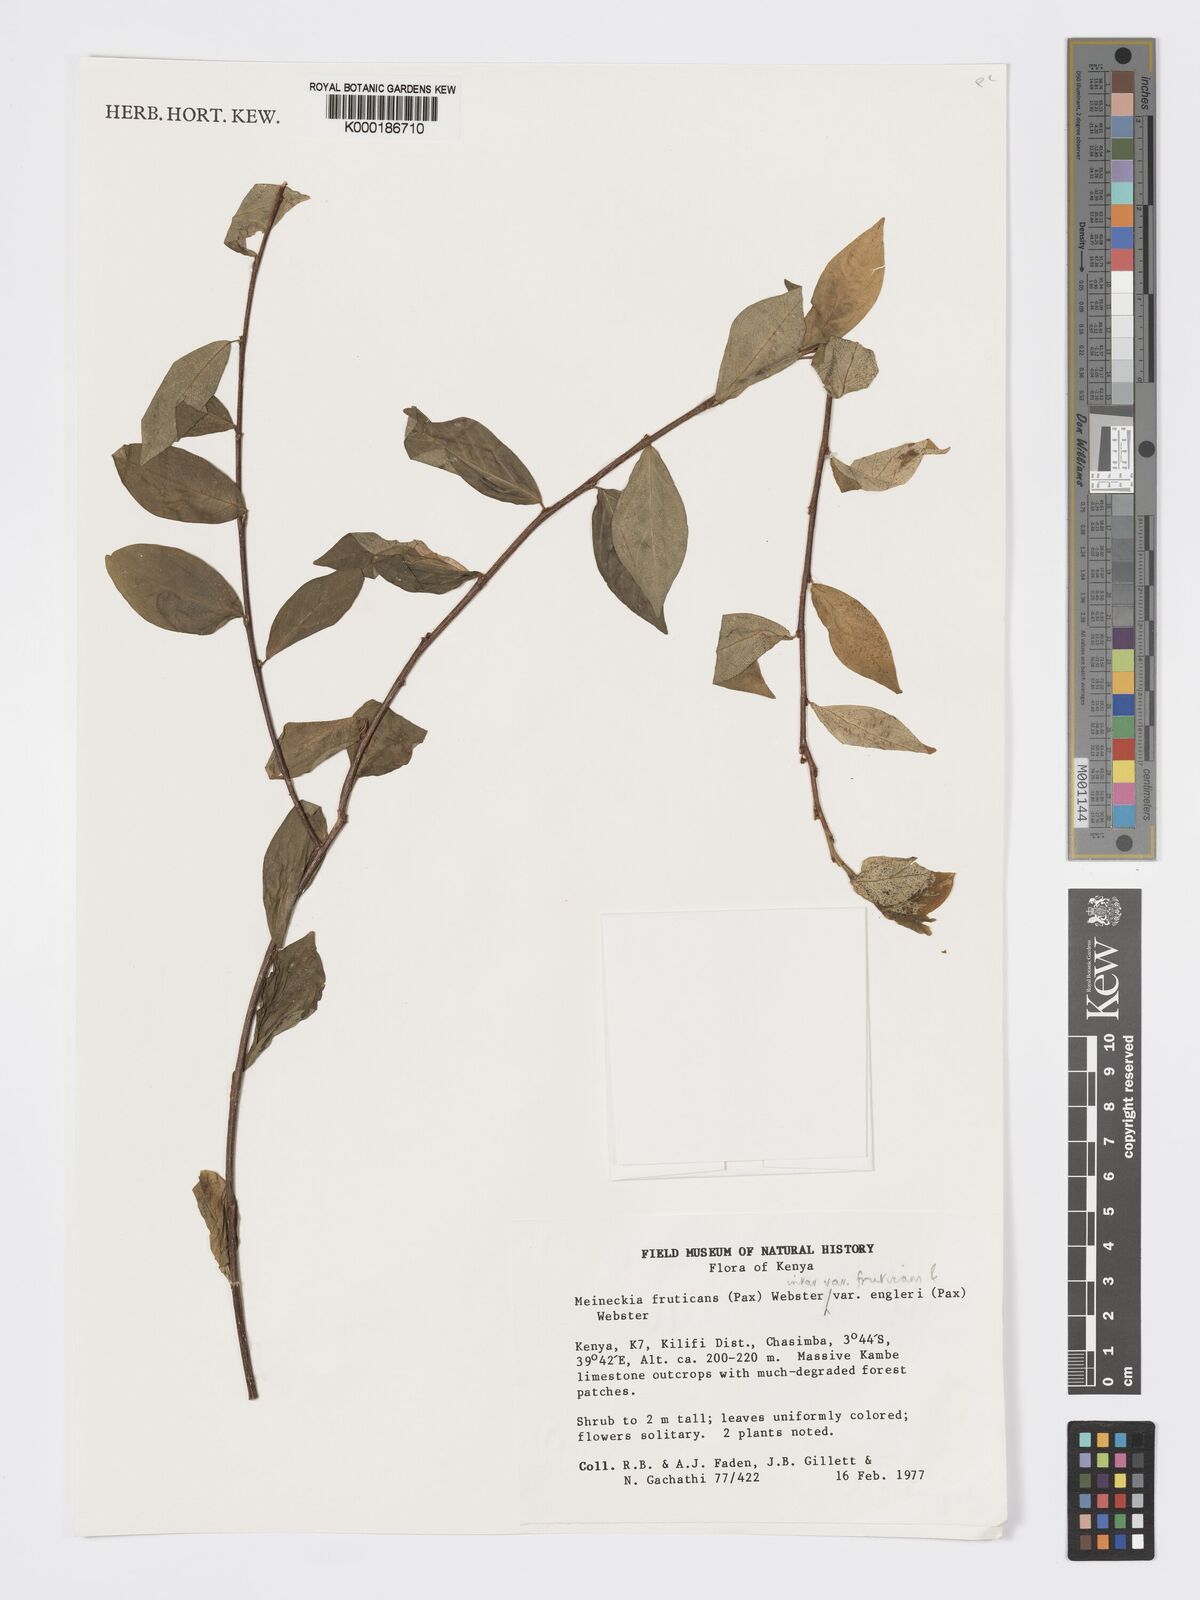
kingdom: Plantae
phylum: Tracheophyta
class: Magnoliopsida
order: Malpighiales
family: Phyllanthaceae
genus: Meineckia
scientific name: Meineckia fruticans
